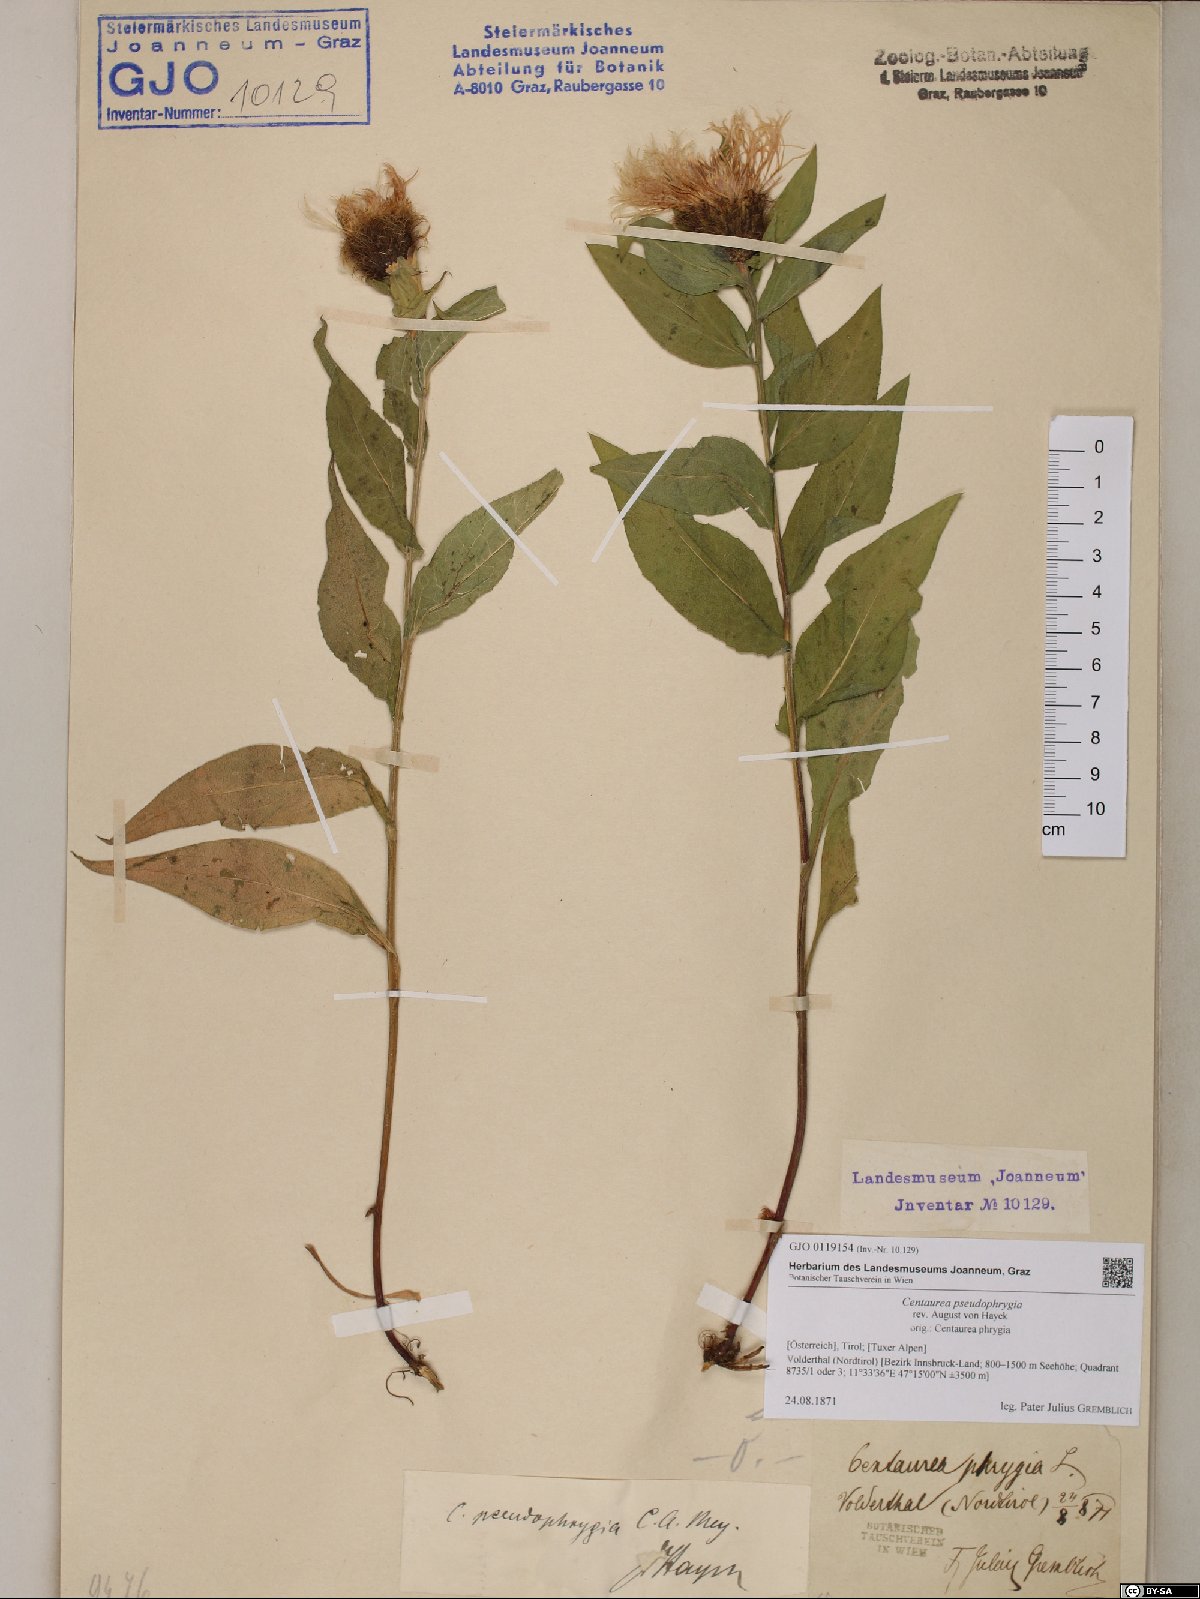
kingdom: Plantae
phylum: Tracheophyta
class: Magnoliopsida
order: Asterales
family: Asteraceae
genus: Centaurea
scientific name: Centaurea pseudophrygia
